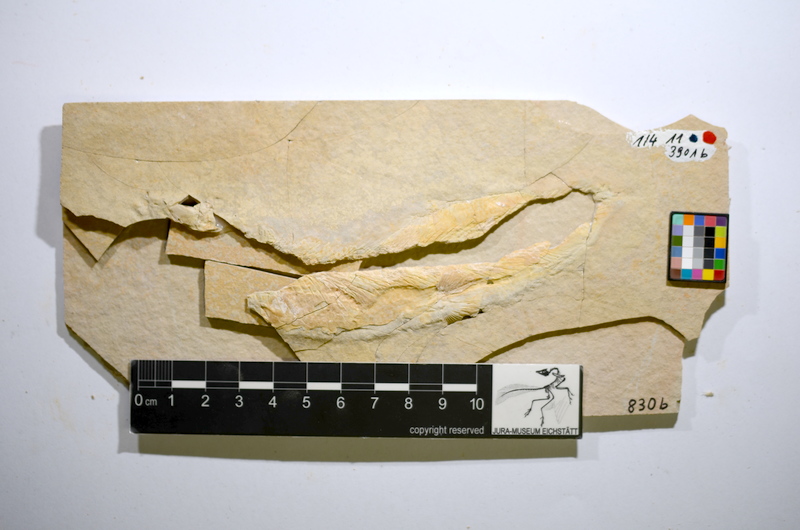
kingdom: Animalia
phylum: Chordata
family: Ascalaboidae
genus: Tharsis
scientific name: Tharsis dubius
